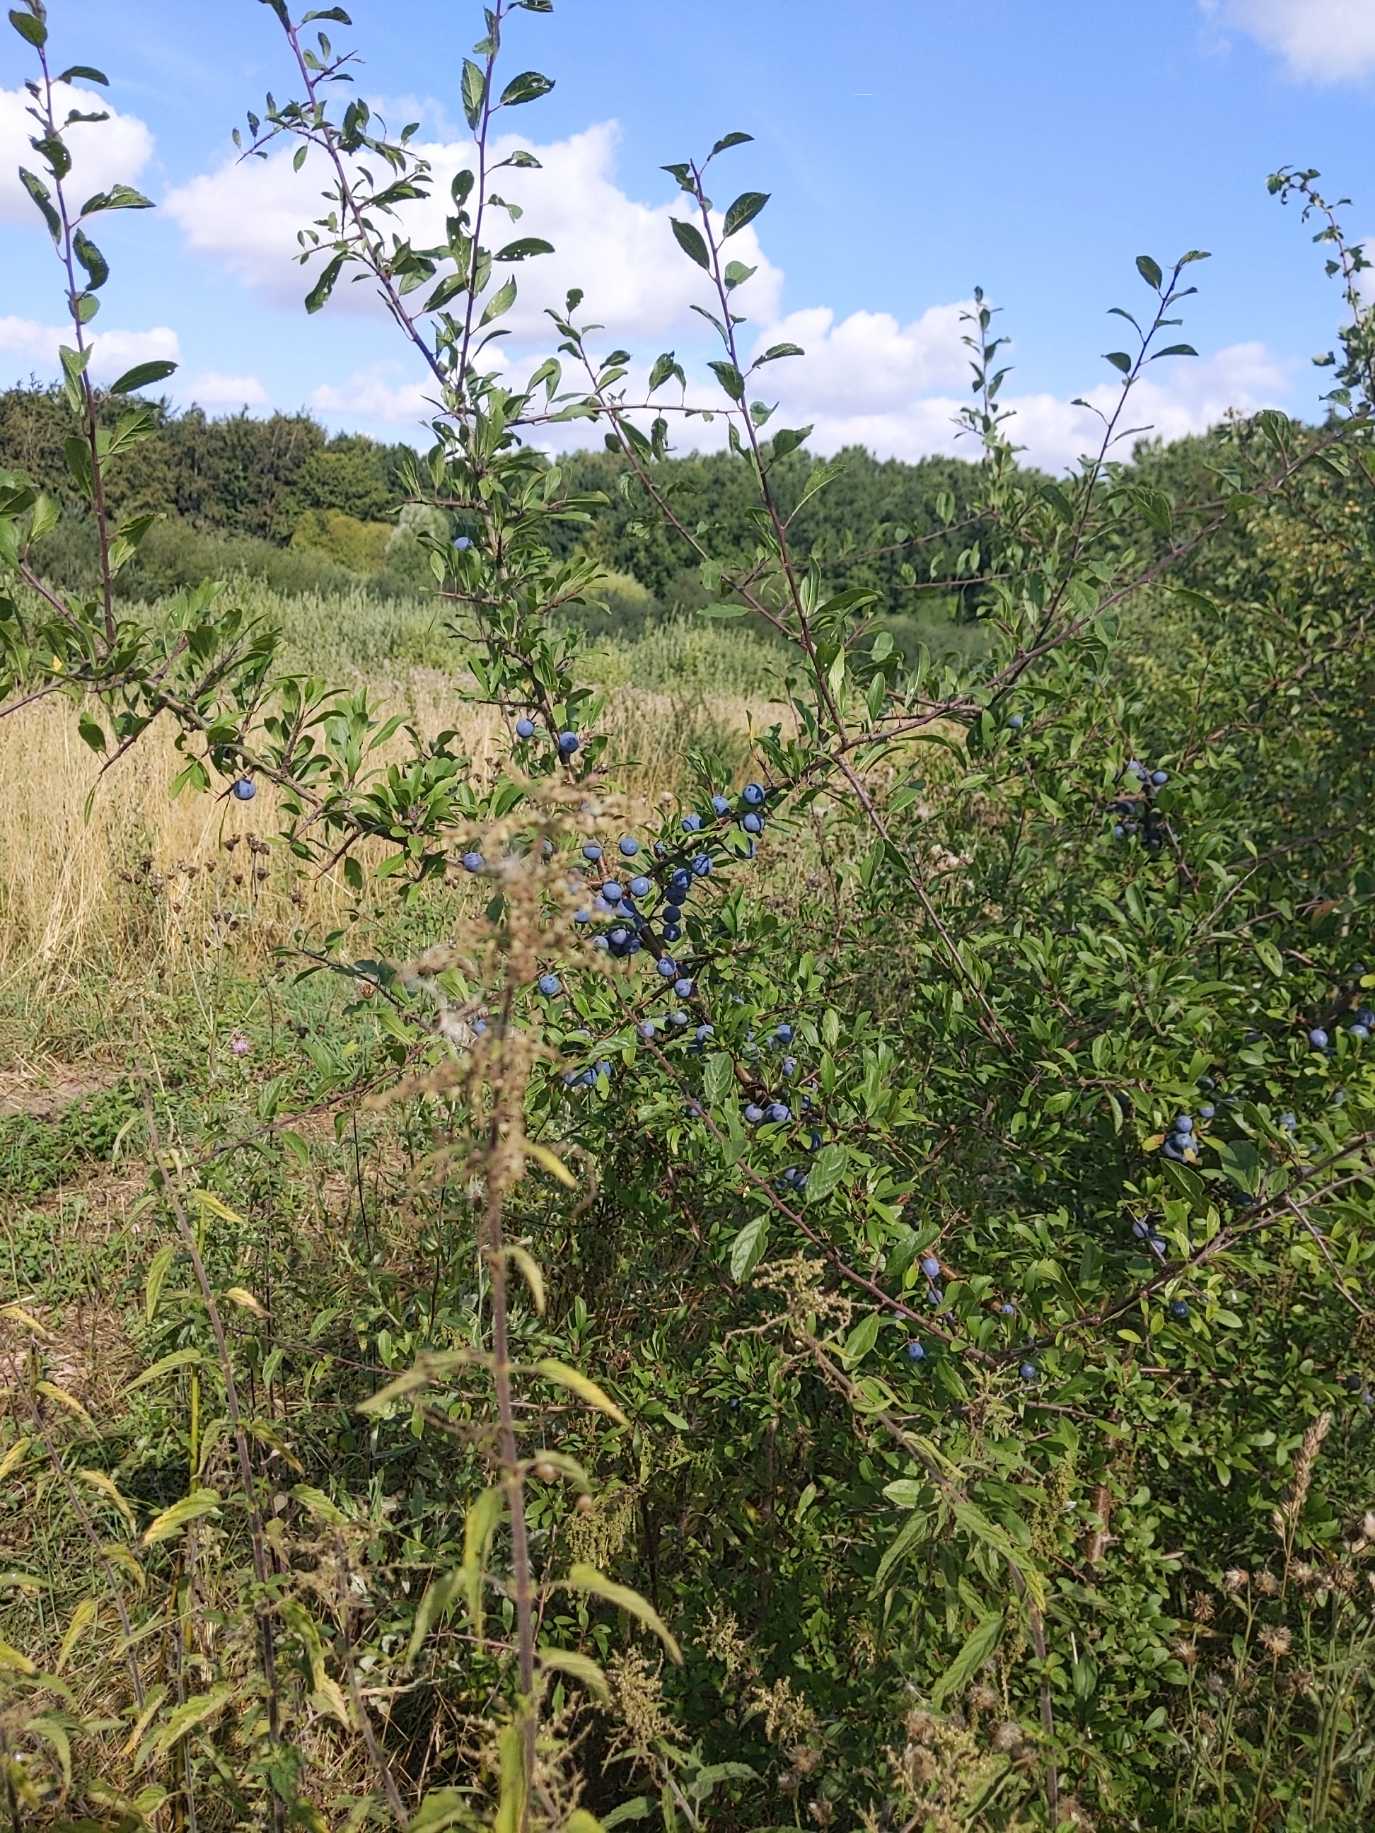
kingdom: Plantae
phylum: Tracheophyta
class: Magnoliopsida
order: Rosales
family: Rosaceae
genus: Prunus
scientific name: Prunus spinosa
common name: Slåen
